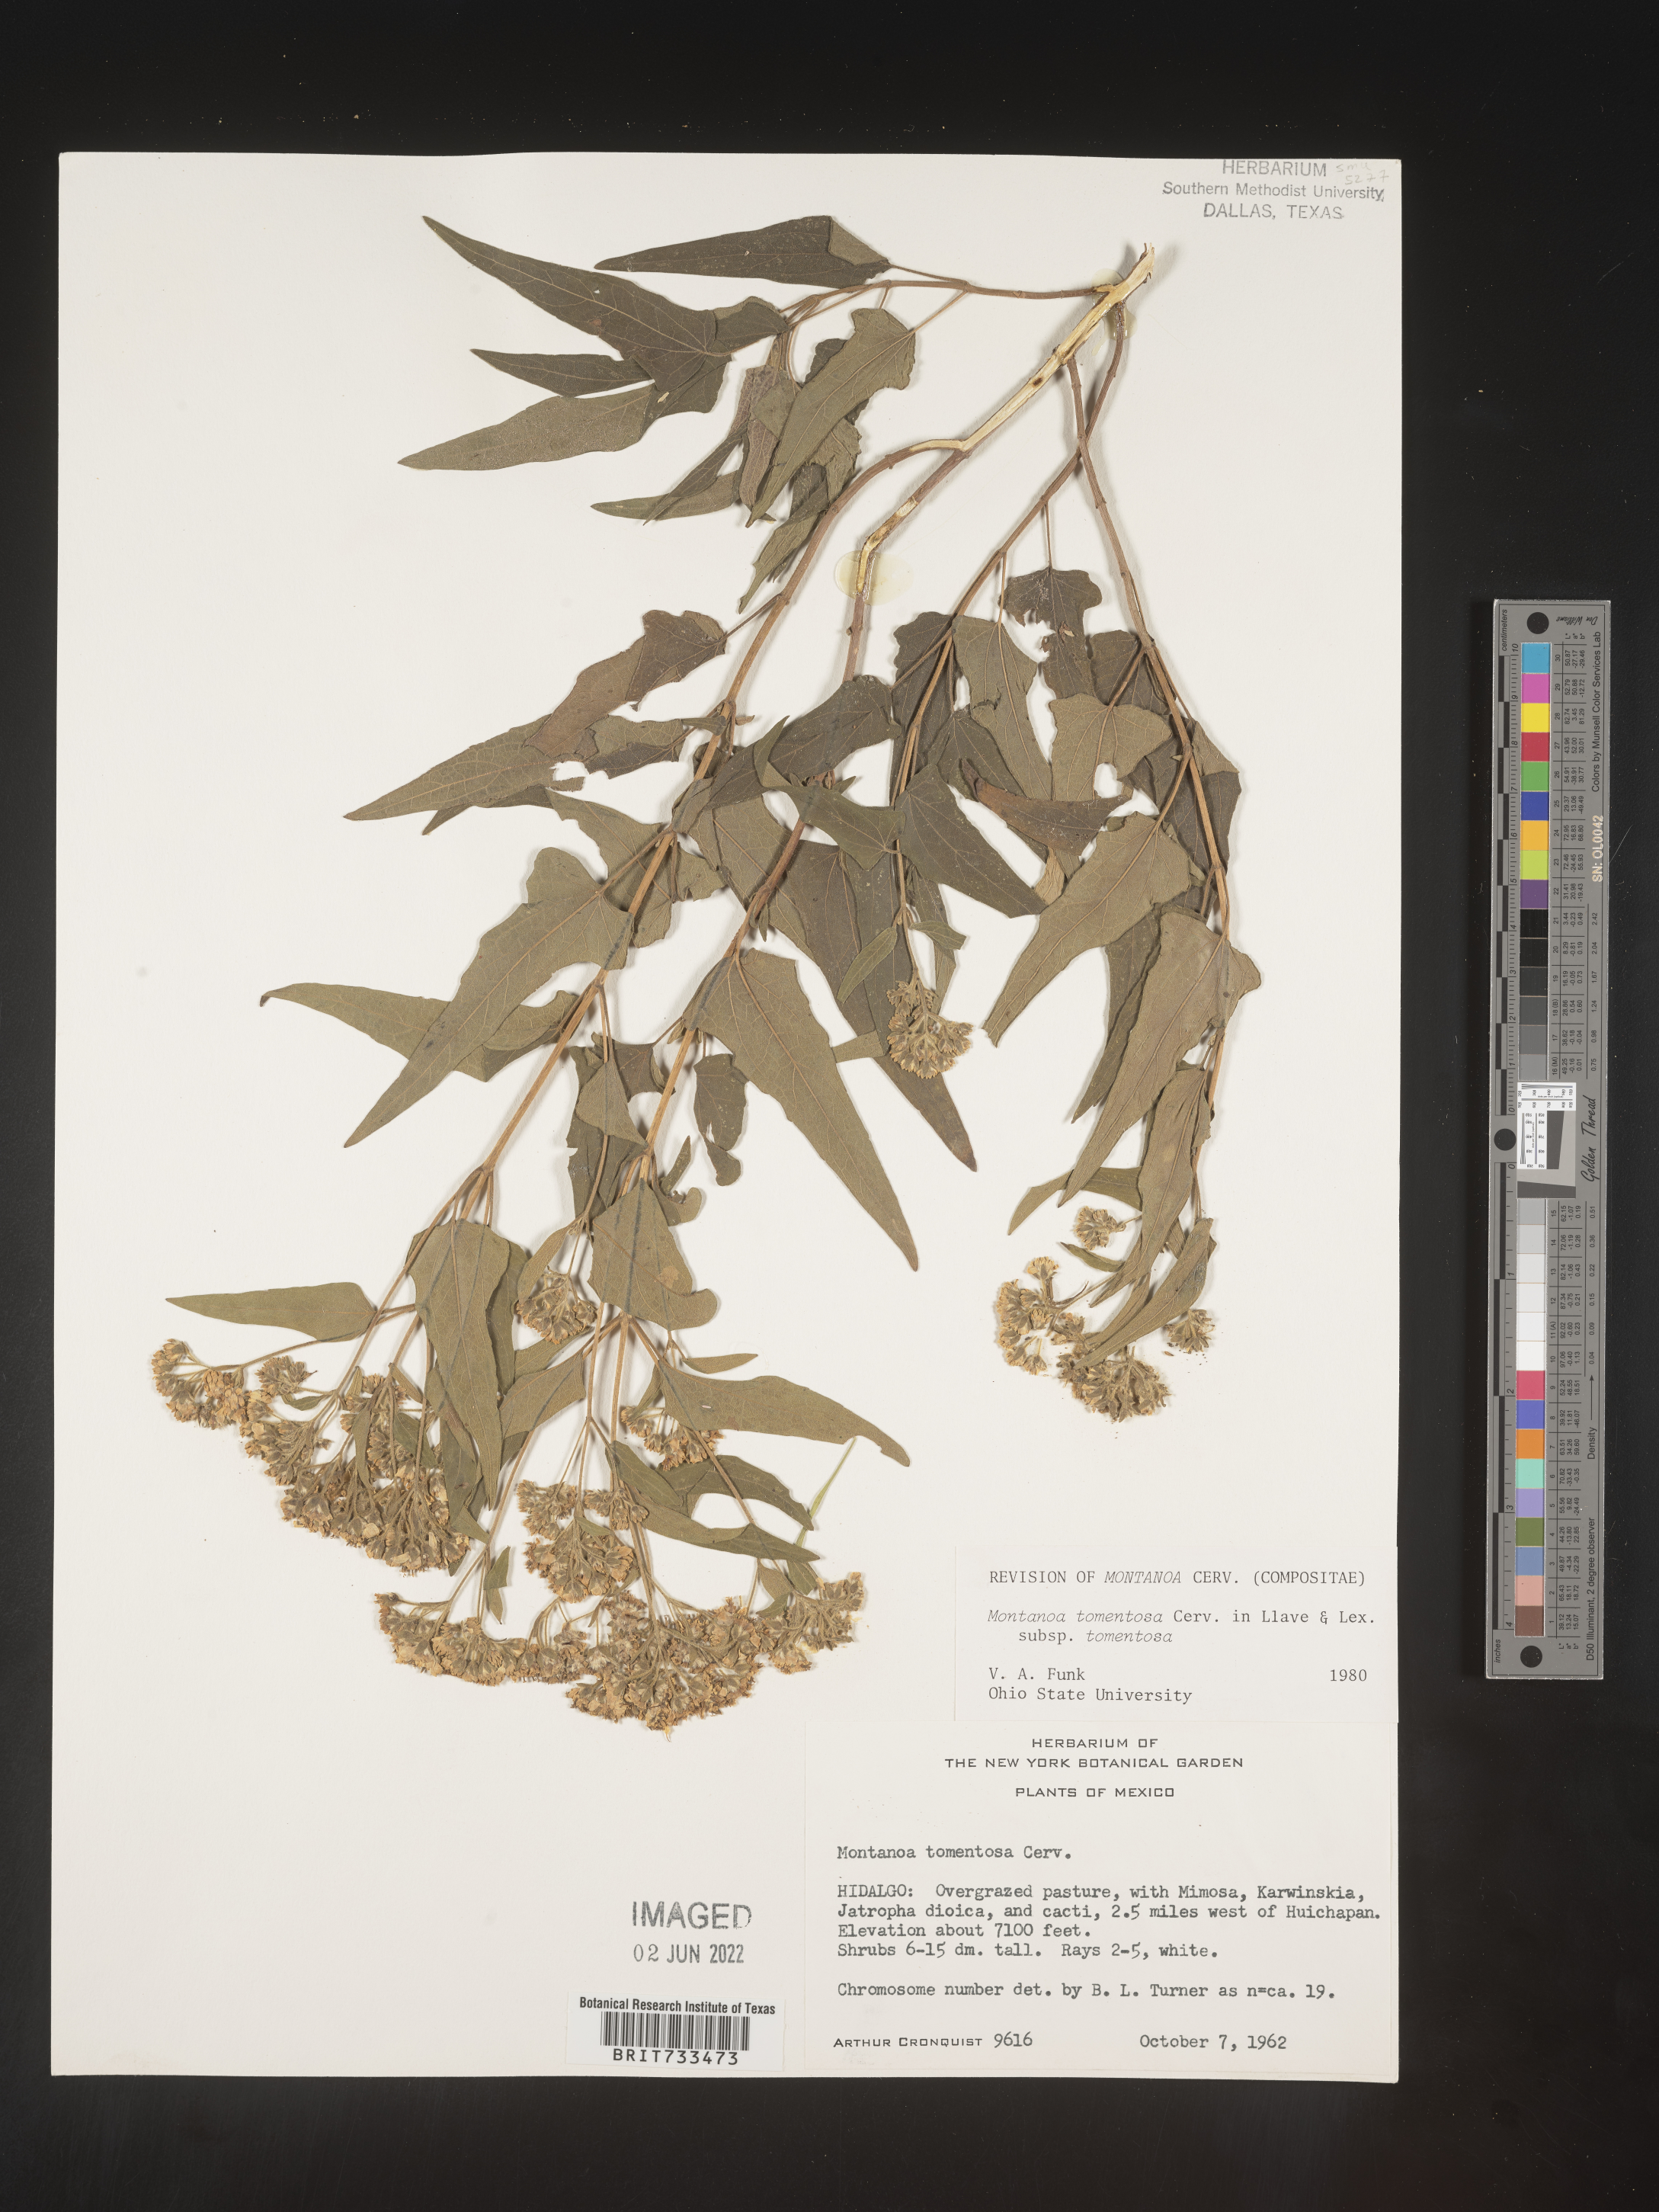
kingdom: Plantae
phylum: Tracheophyta
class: Magnoliopsida
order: Asterales
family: Asteraceae
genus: Montanoa
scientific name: Montanoa
